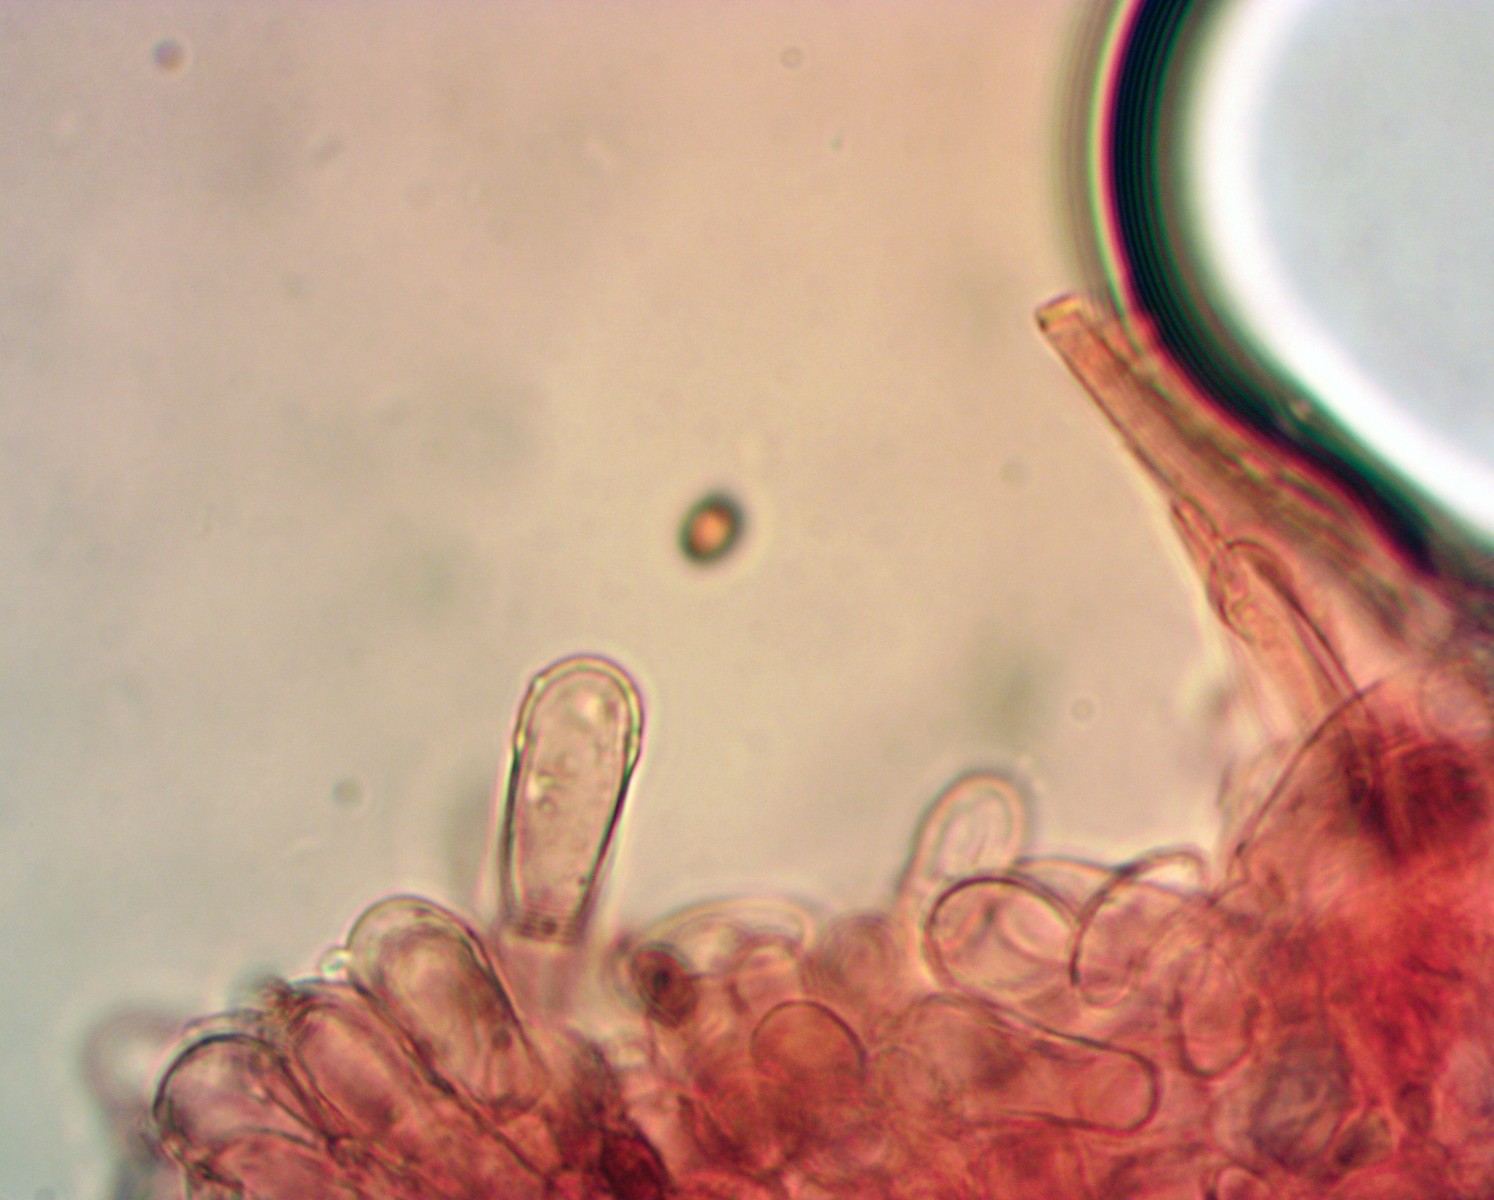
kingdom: Fungi
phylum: Basidiomycota
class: Agaricomycetes
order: Agaricales
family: Agaricaceae
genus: Agaricus
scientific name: Agaricus sylvaticus
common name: lille blod-champignon
